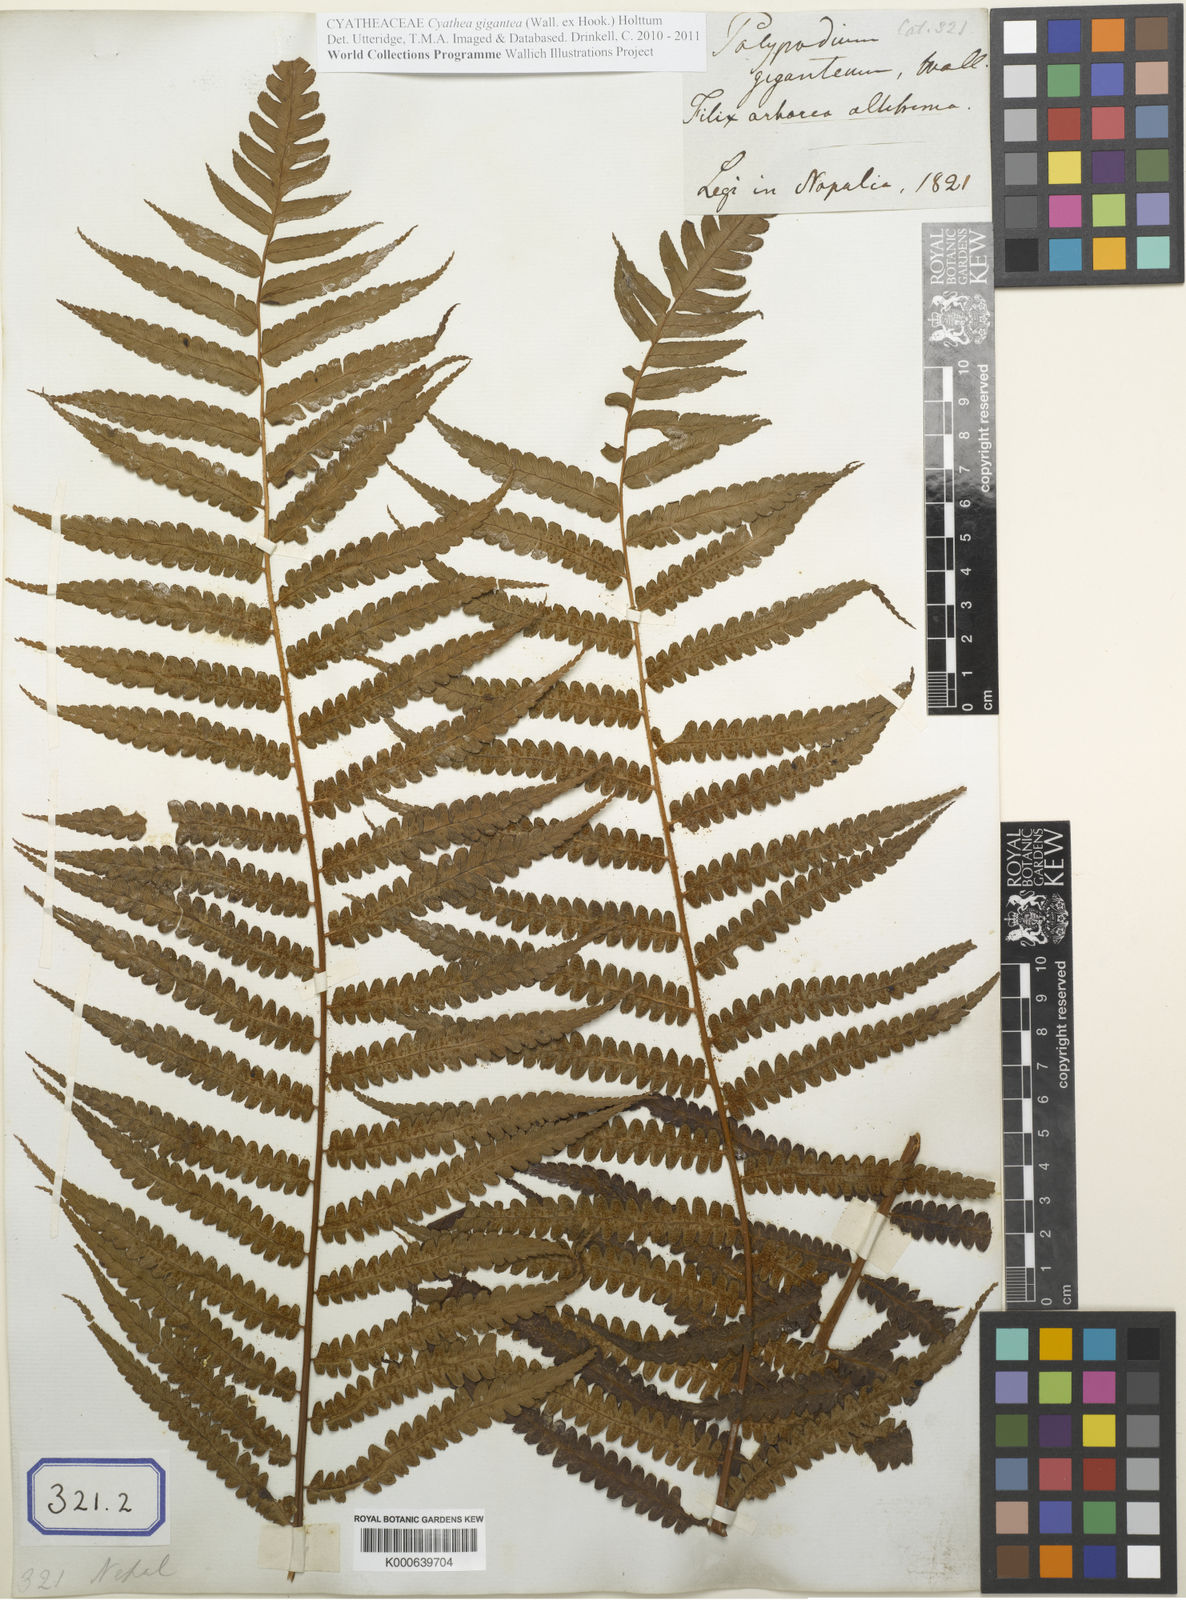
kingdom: Plantae
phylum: Tracheophyta
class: Polypodiopsida
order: Cyatheales
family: Cyatheaceae
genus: Gymnosphaera
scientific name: Gymnosphaera gigantea
